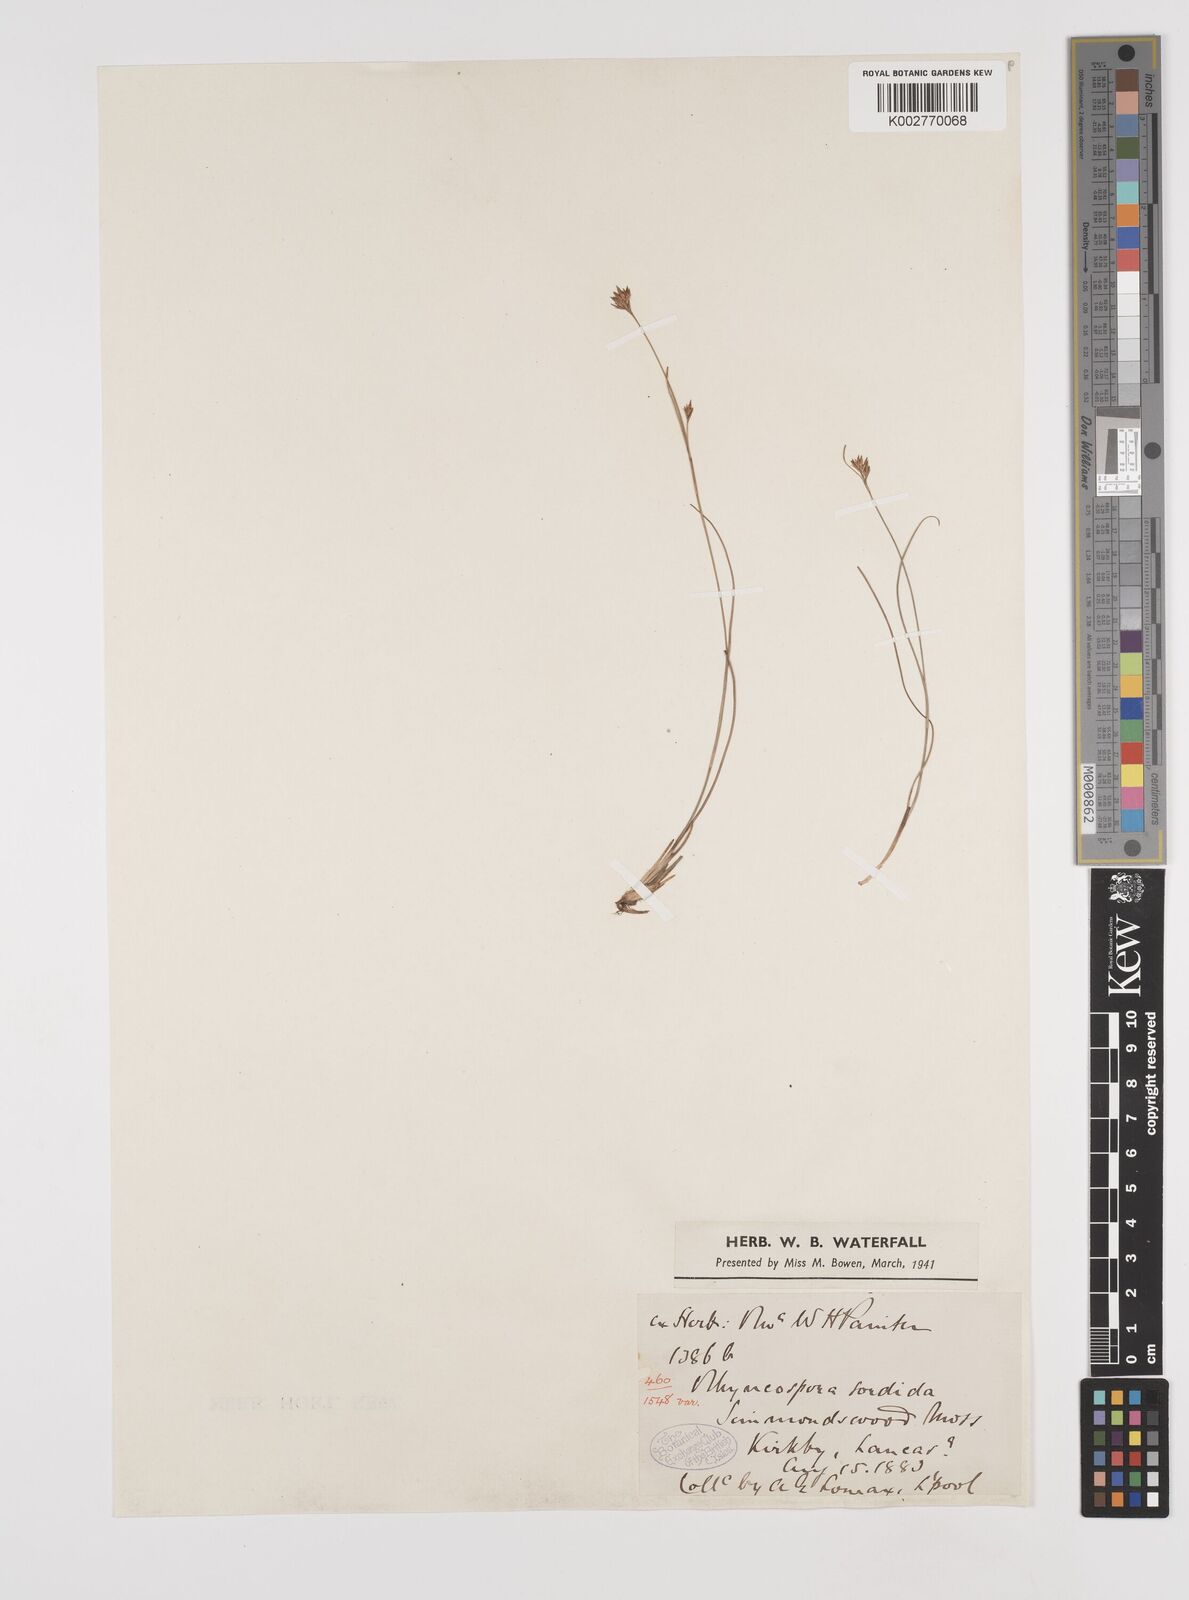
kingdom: Plantae
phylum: Tracheophyta
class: Liliopsida
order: Poales
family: Cyperaceae
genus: Rhynchospora
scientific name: Rhynchospora alba
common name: White beak-sedge
